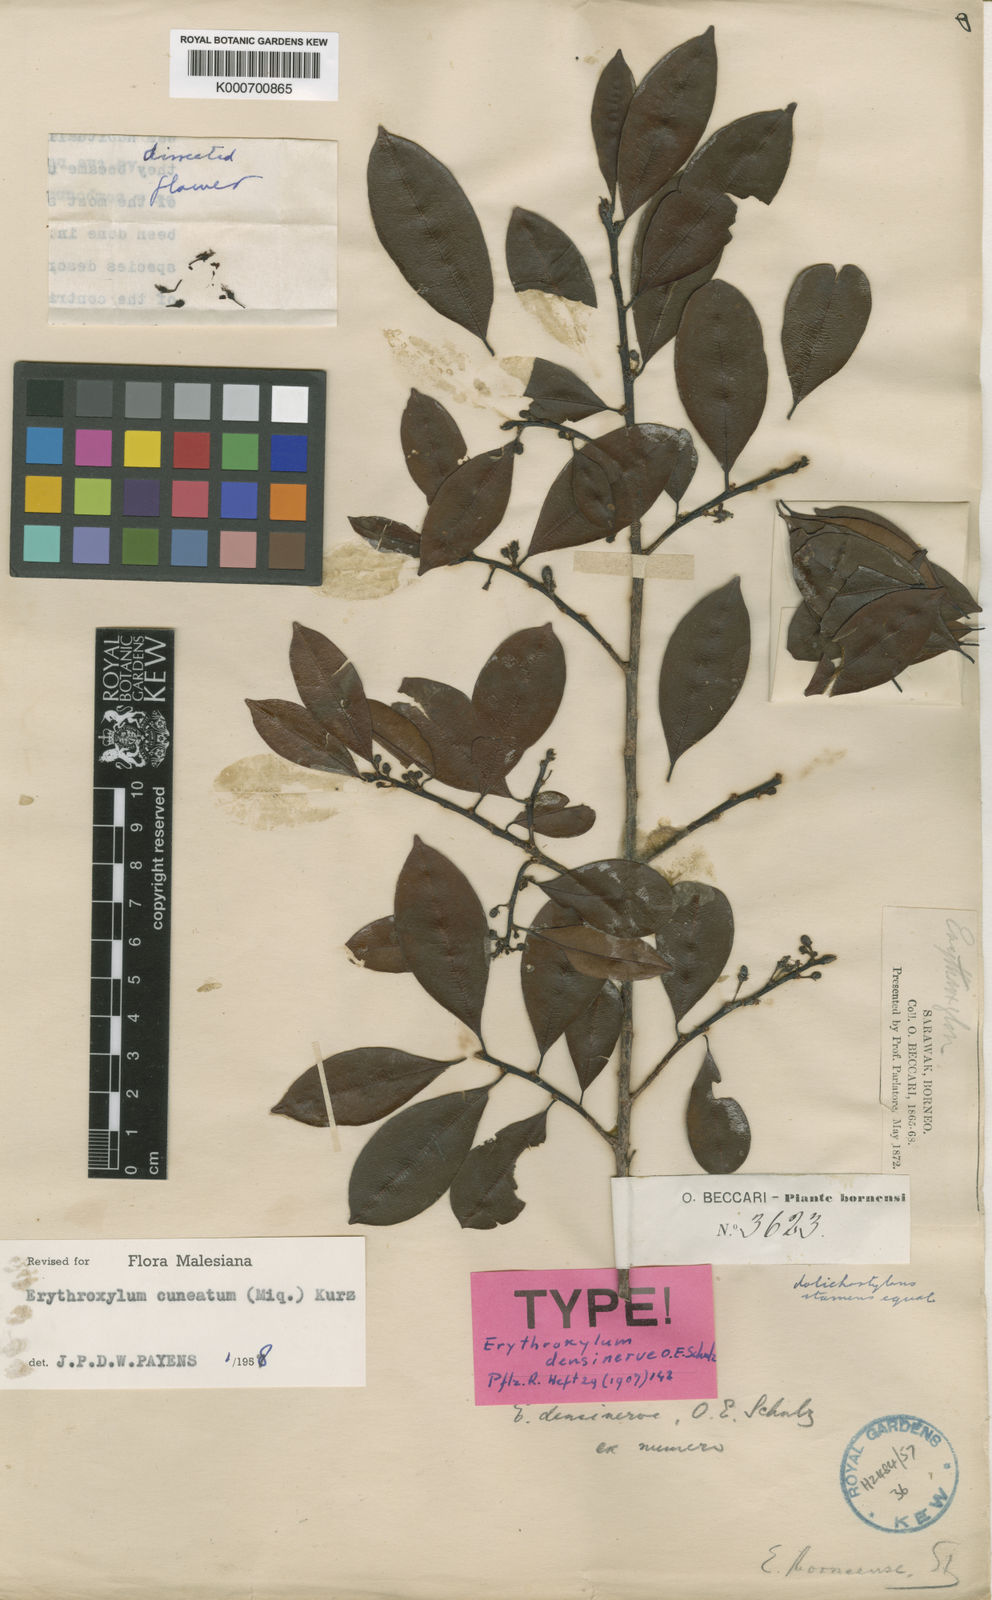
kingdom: Plantae
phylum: Tracheophyta
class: Magnoliopsida
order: Malpighiales
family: Erythroxylaceae
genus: Erythroxylum
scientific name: Erythroxylum cuneatum
